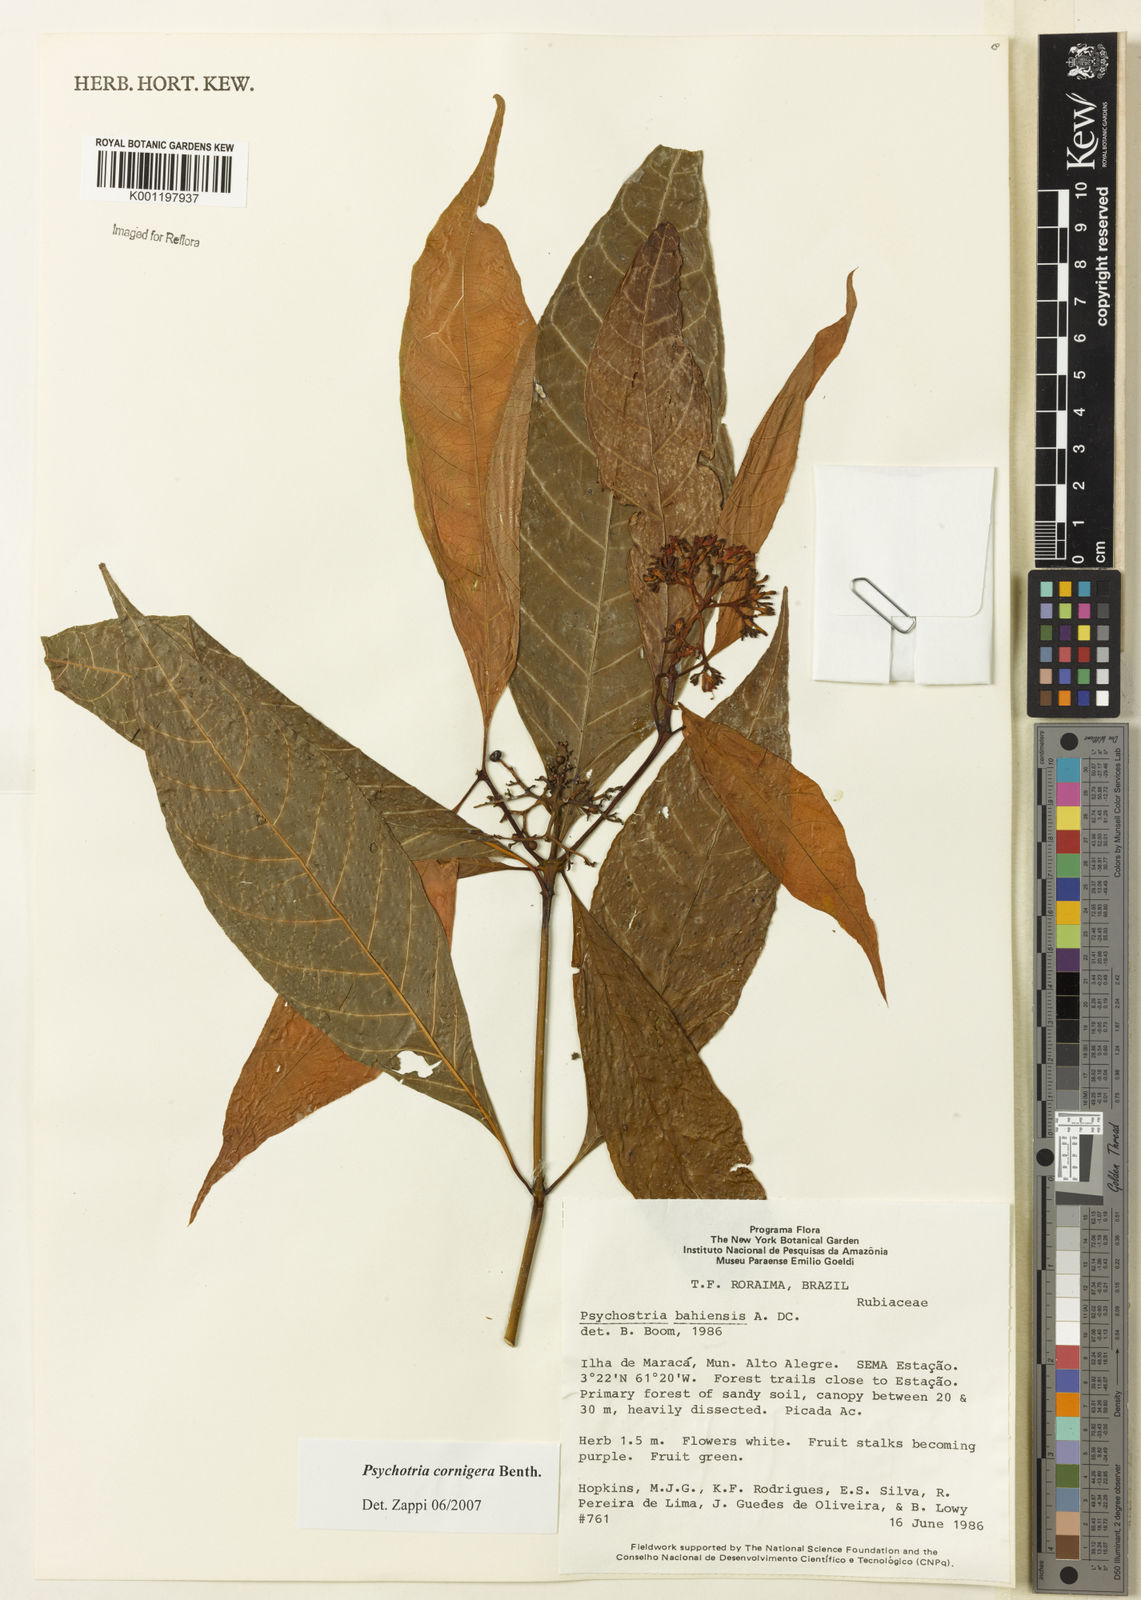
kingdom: Plantae
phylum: Tracheophyta
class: Magnoliopsida
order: Gentianales
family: Rubiaceae
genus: Psychotria
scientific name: Psychotria bahiensis
